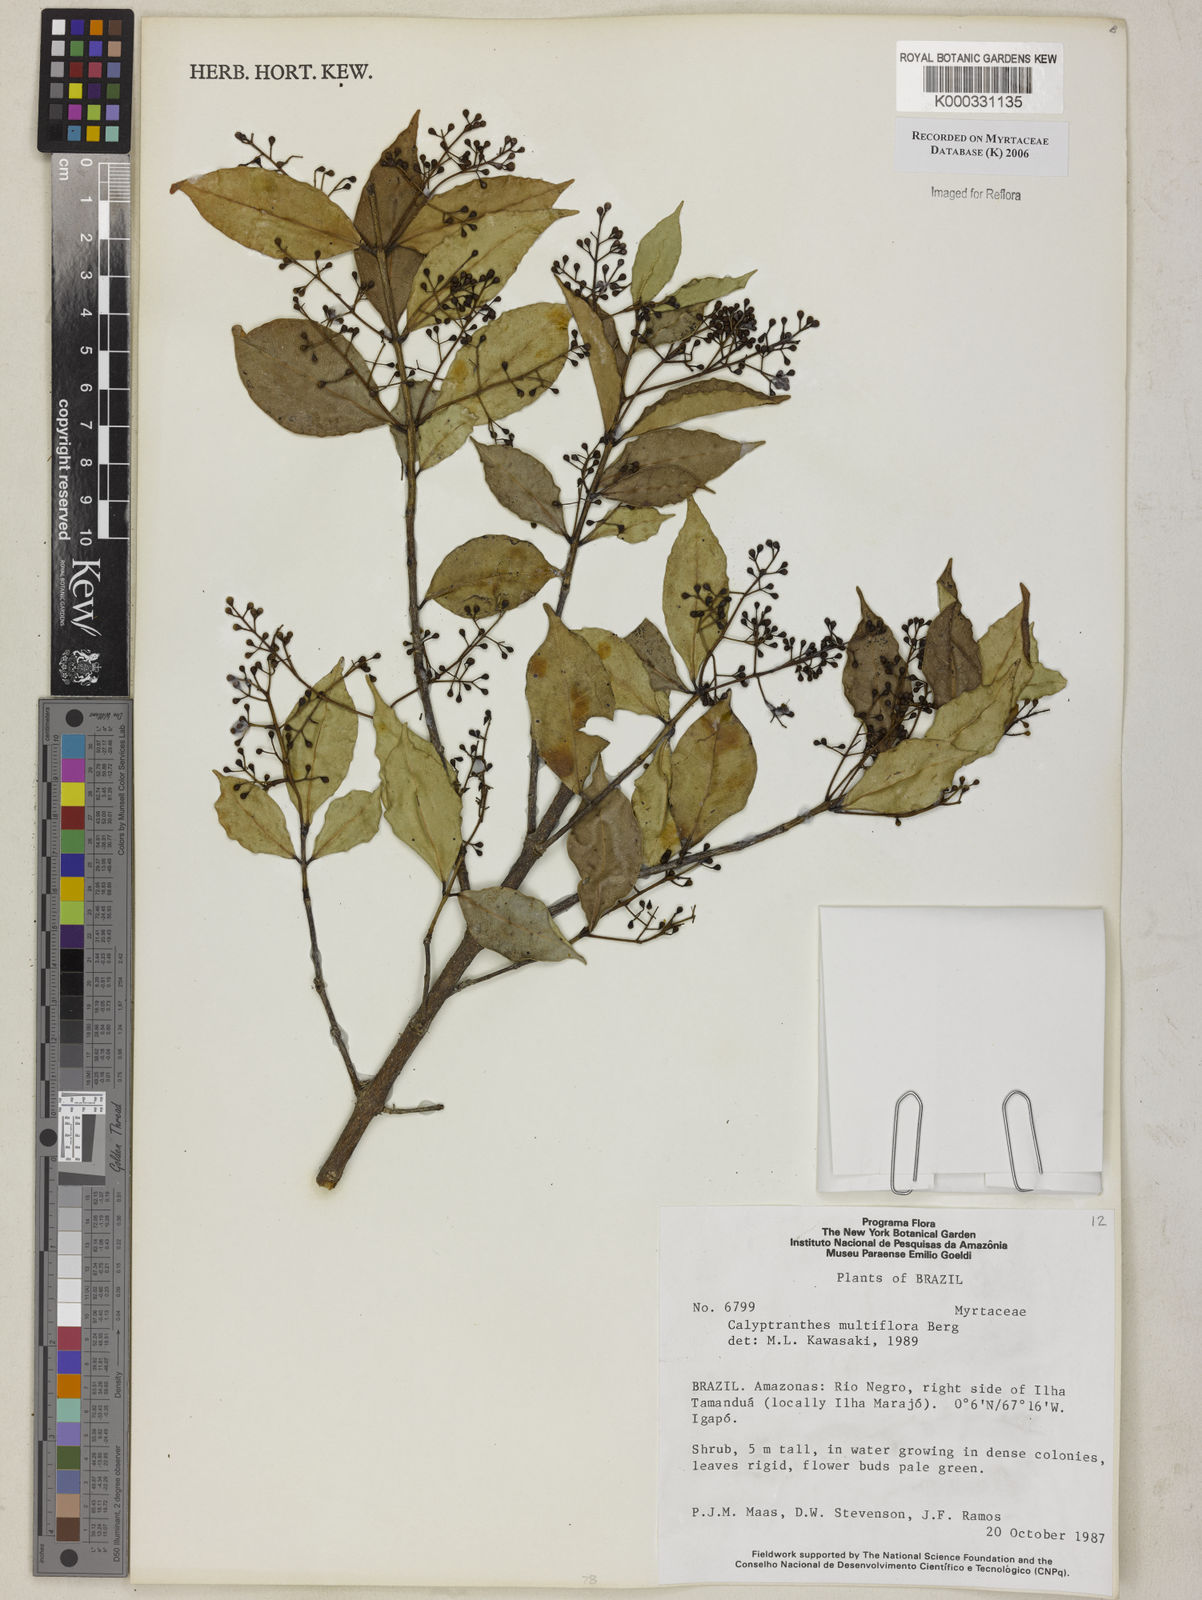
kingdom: Plantae
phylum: Tracheophyta
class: Magnoliopsida
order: Myrtales
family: Myrtaceae
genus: Myrcia
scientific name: Myrcia aulomyrcioides
